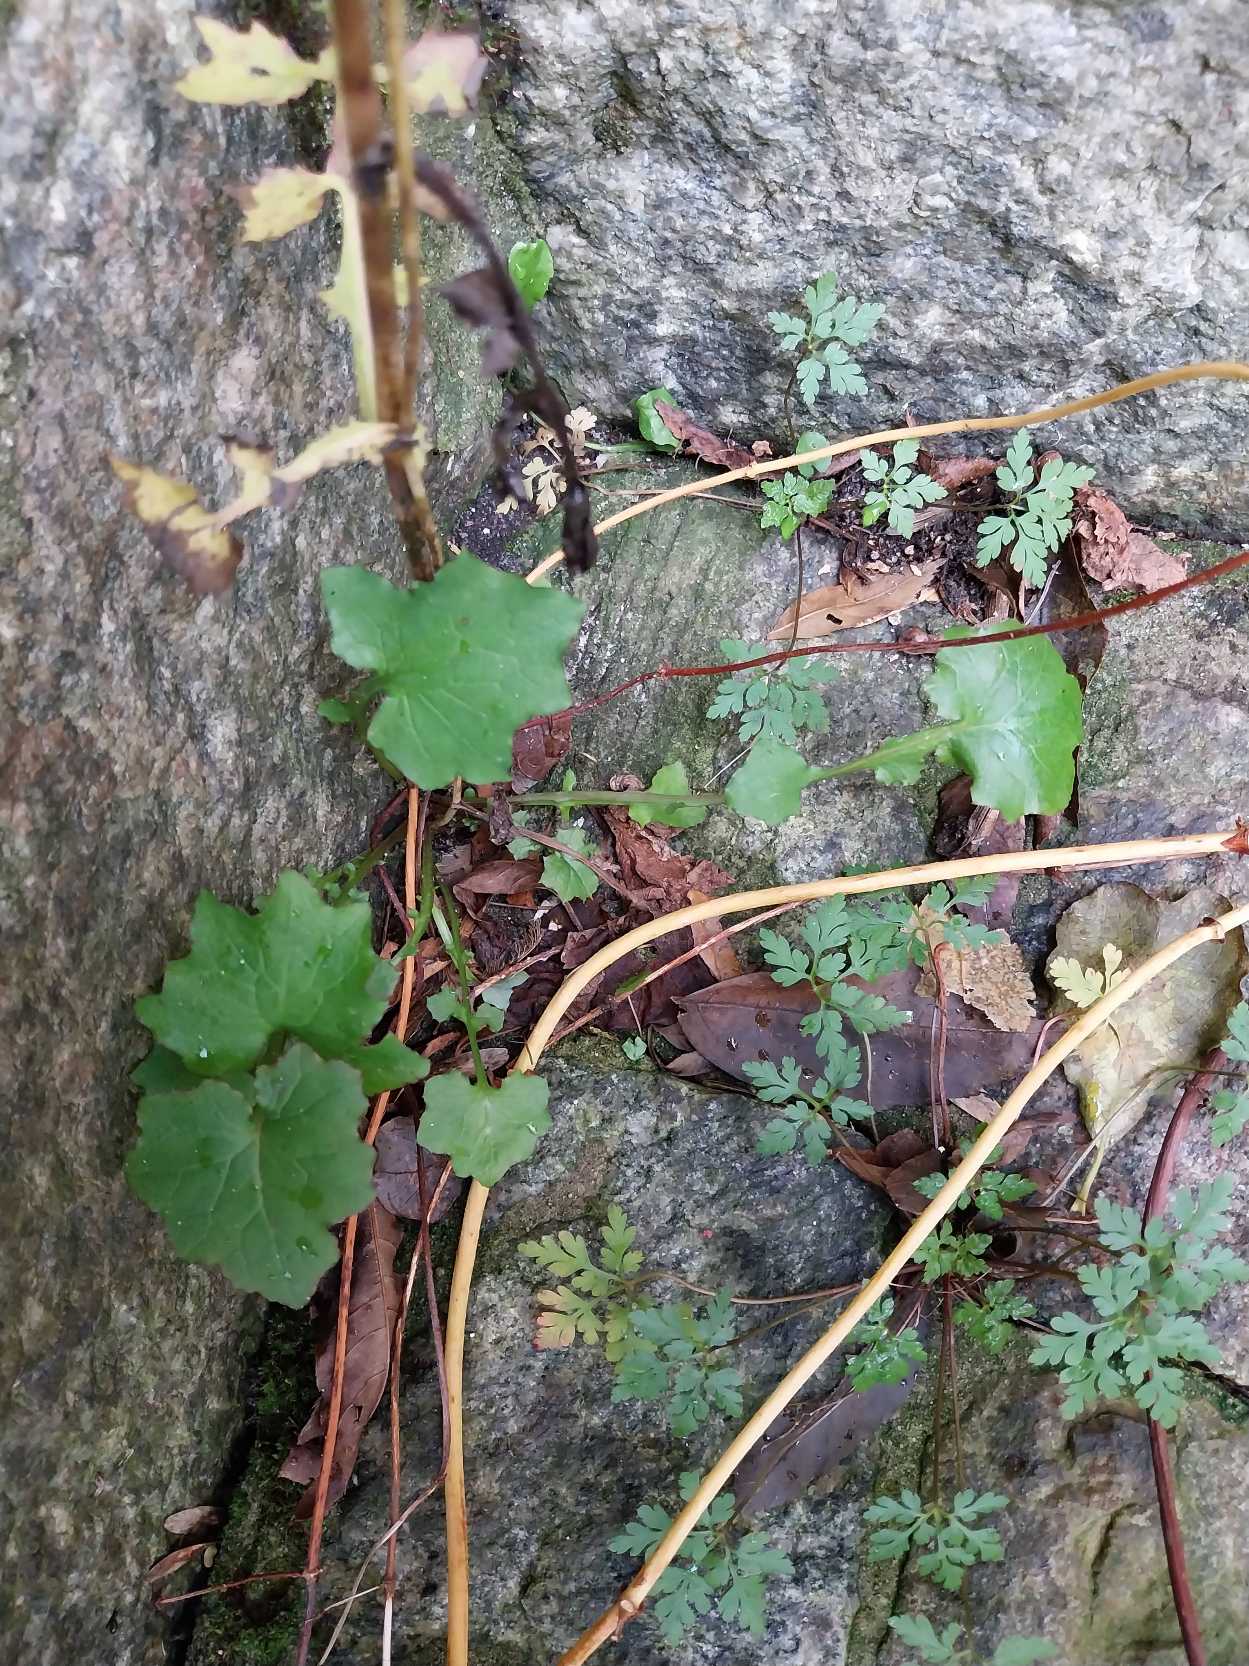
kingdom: Plantae
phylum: Tracheophyta
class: Magnoliopsida
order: Asterales
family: Asteraceae
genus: Mycelis
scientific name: Mycelis muralis
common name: Skov-salat
